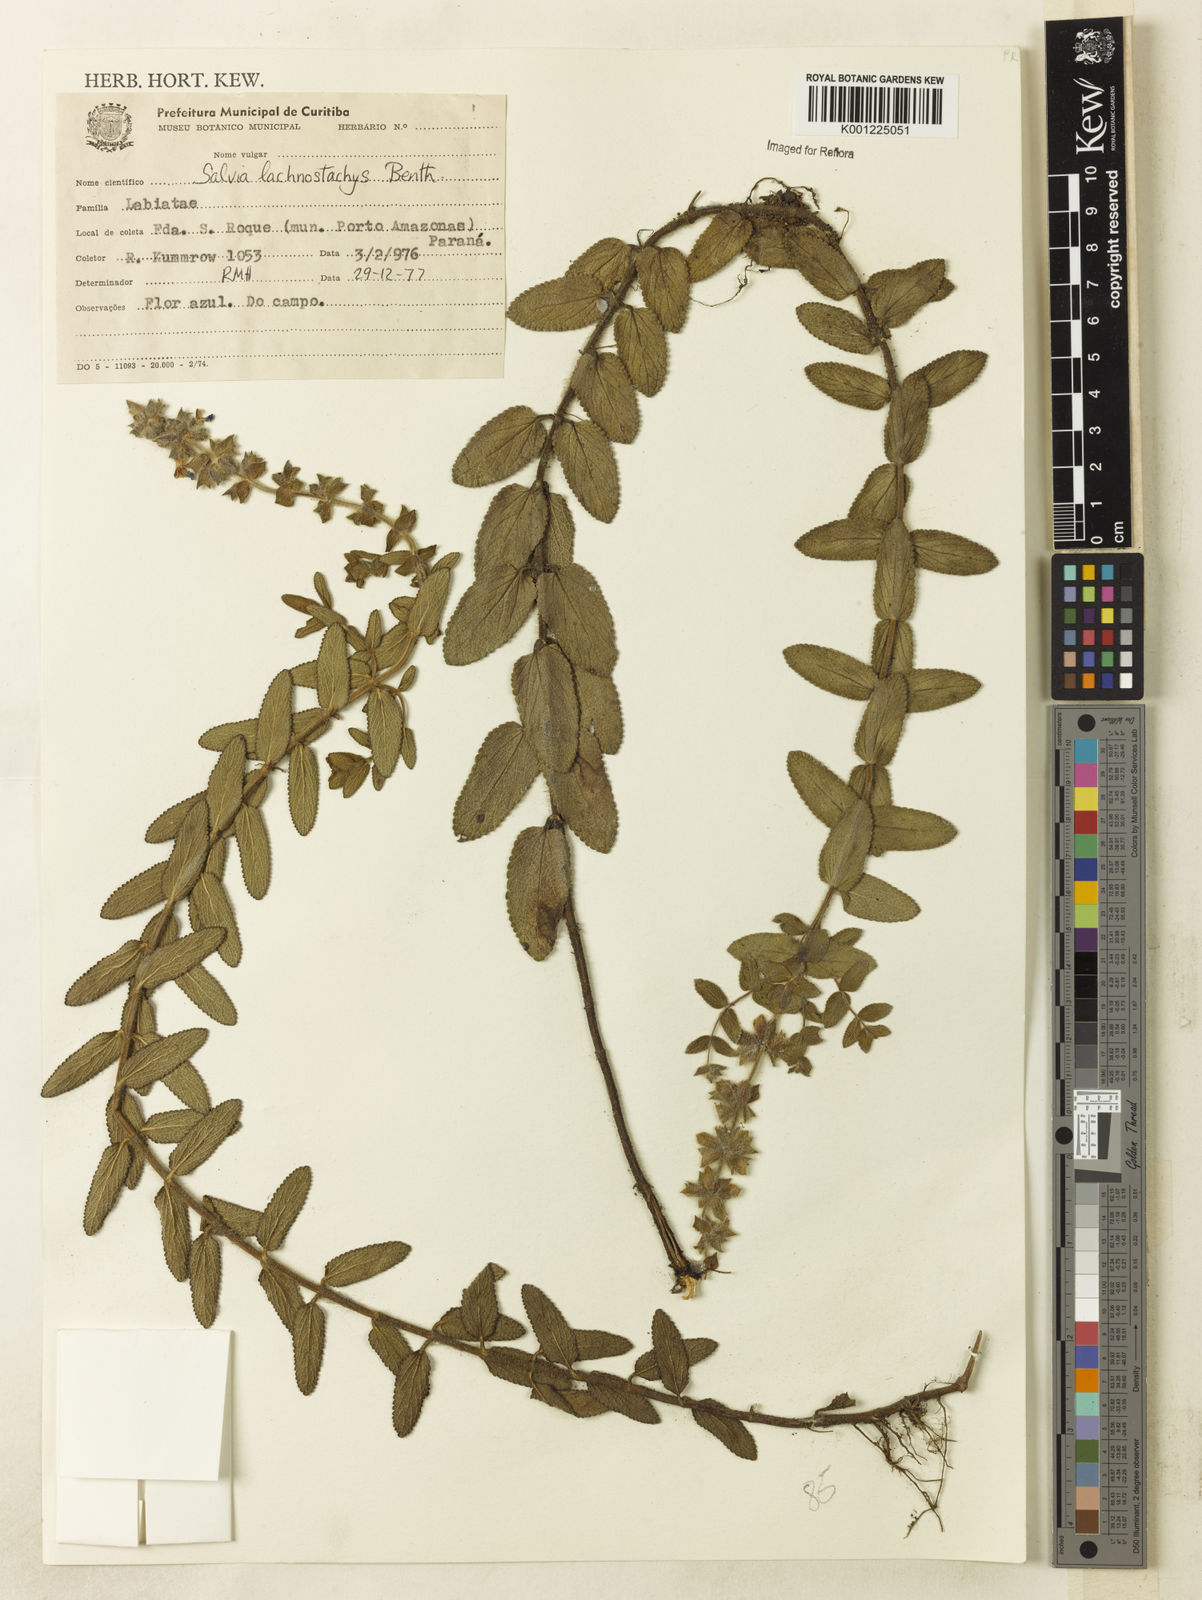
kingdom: Plantae
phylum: Tracheophyta
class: Magnoliopsida
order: Lamiales
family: Lamiaceae
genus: Salvia
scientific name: Salvia lachnostachys
